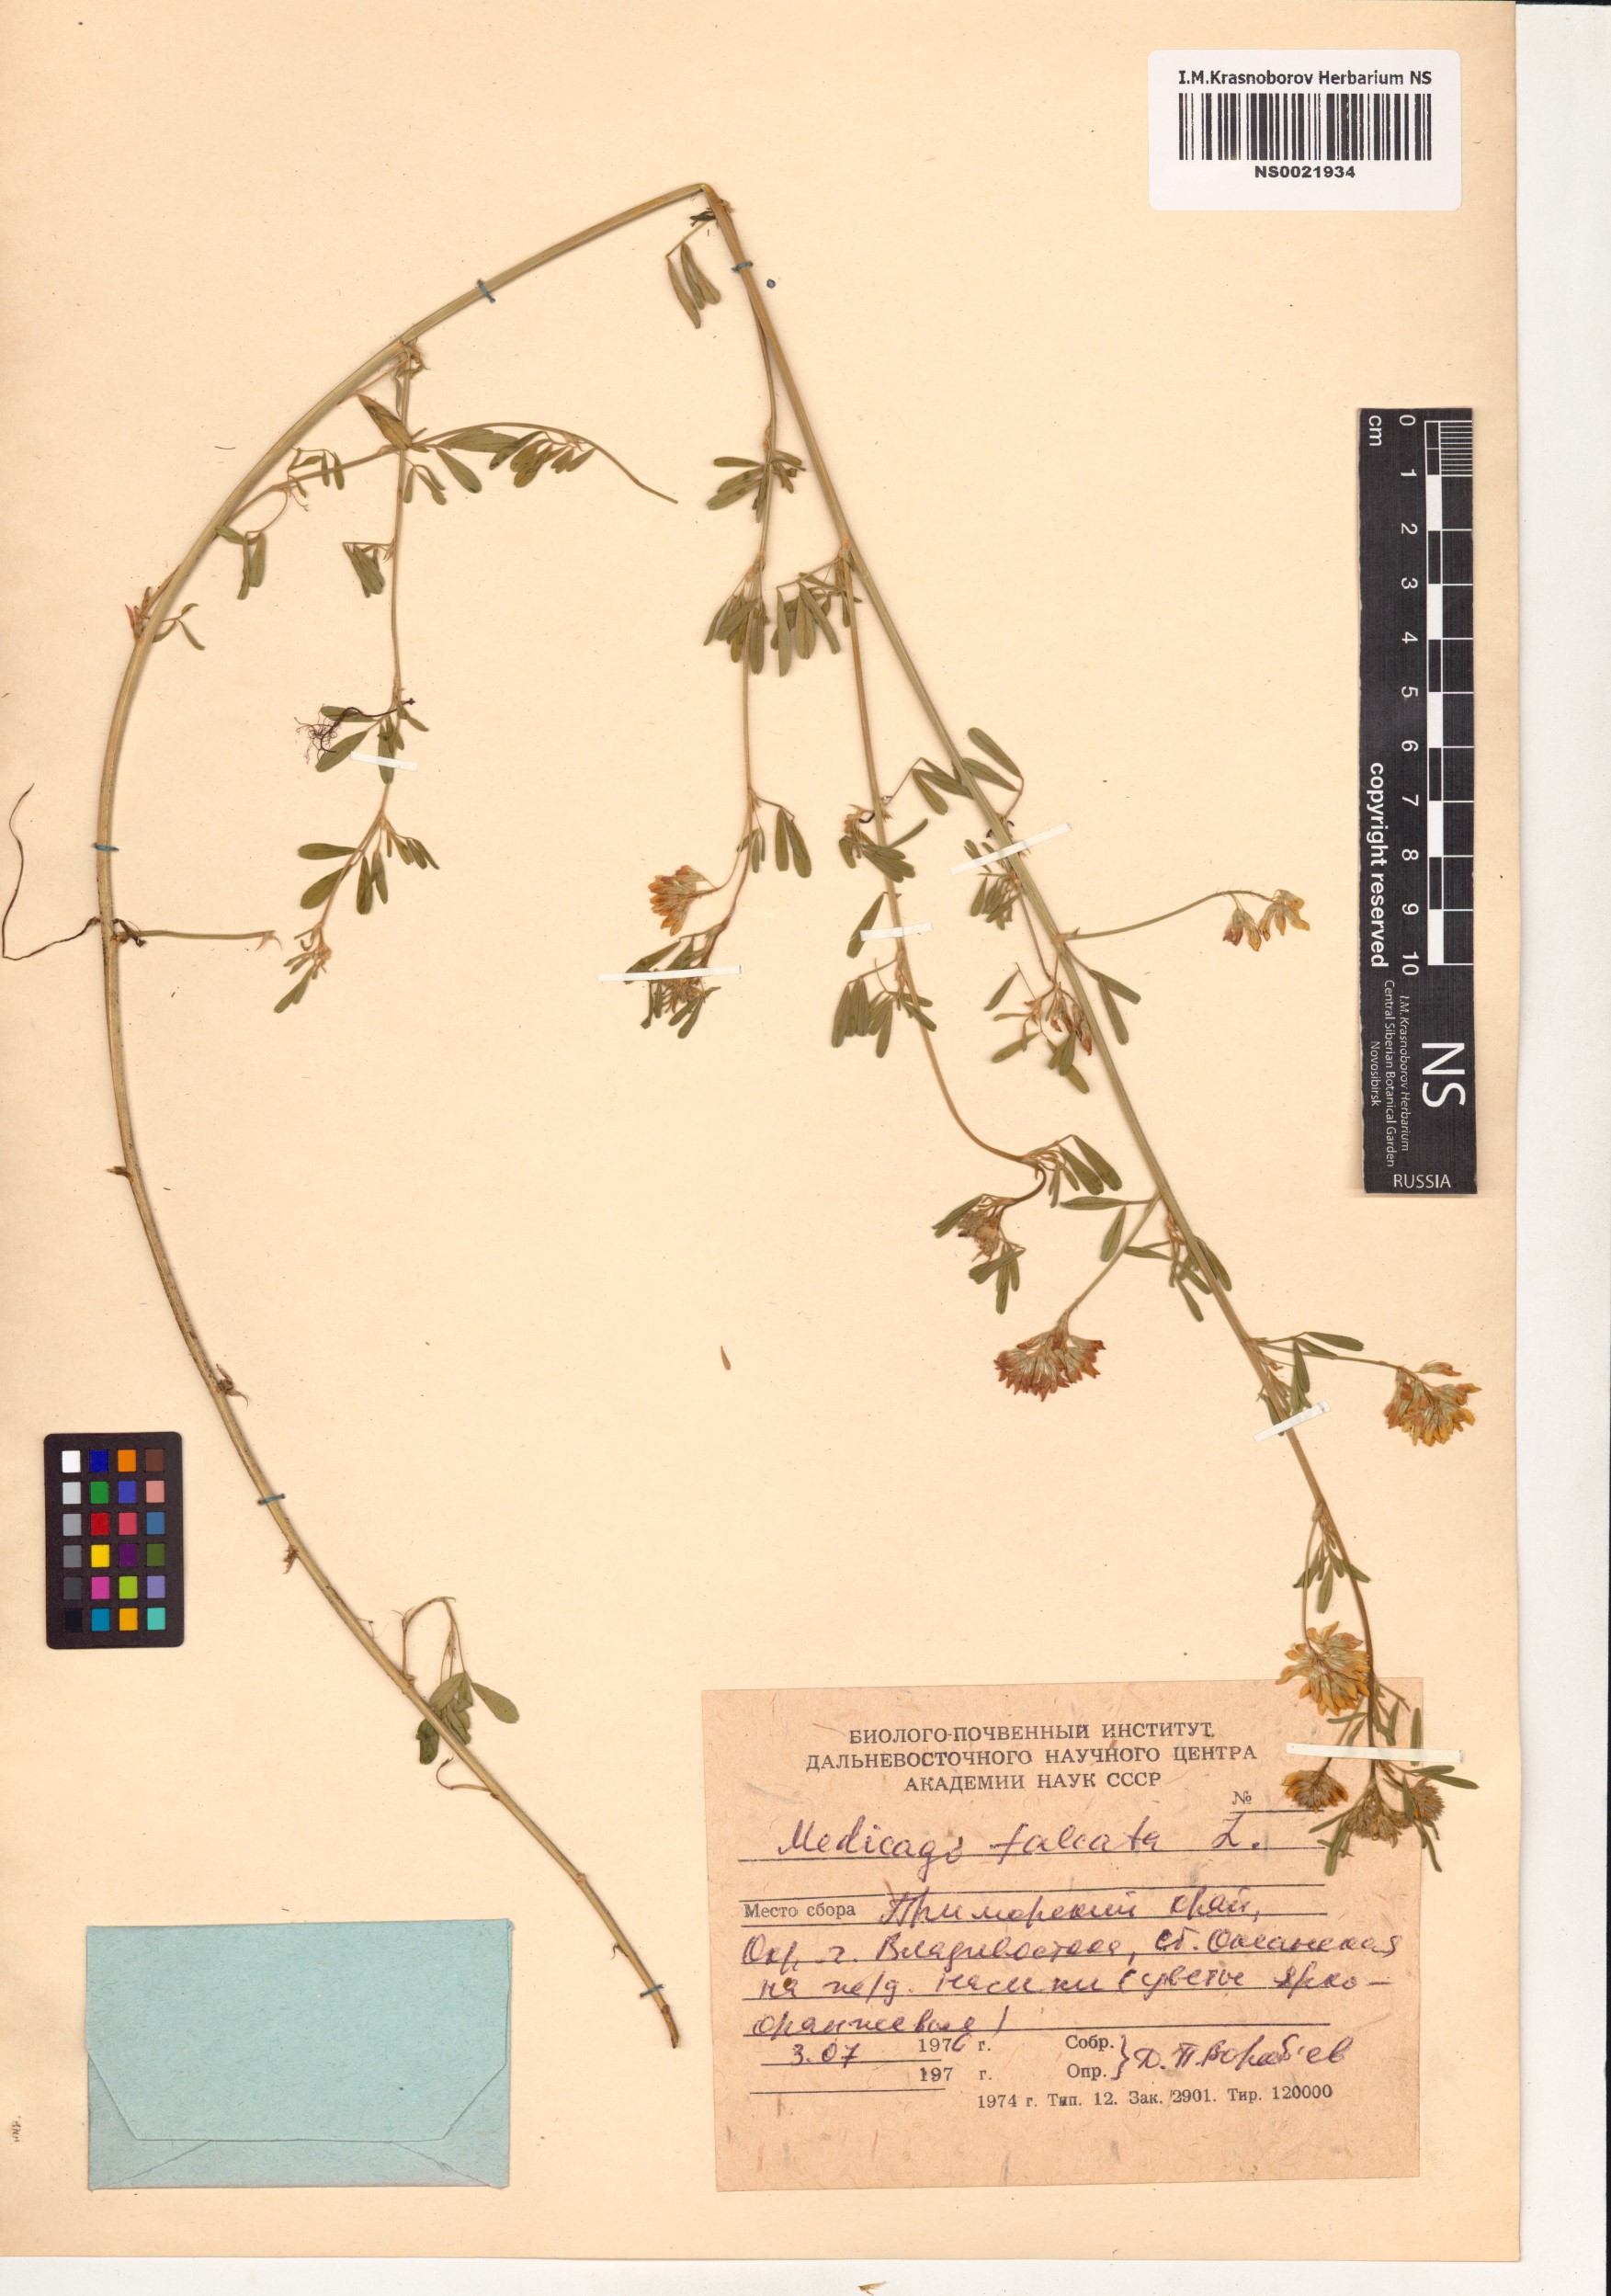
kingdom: Plantae
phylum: Tracheophyta
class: Magnoliopsida
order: Fabales
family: Fabaceae
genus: Medicago
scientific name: Medicago falcata
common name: Sickle medick
